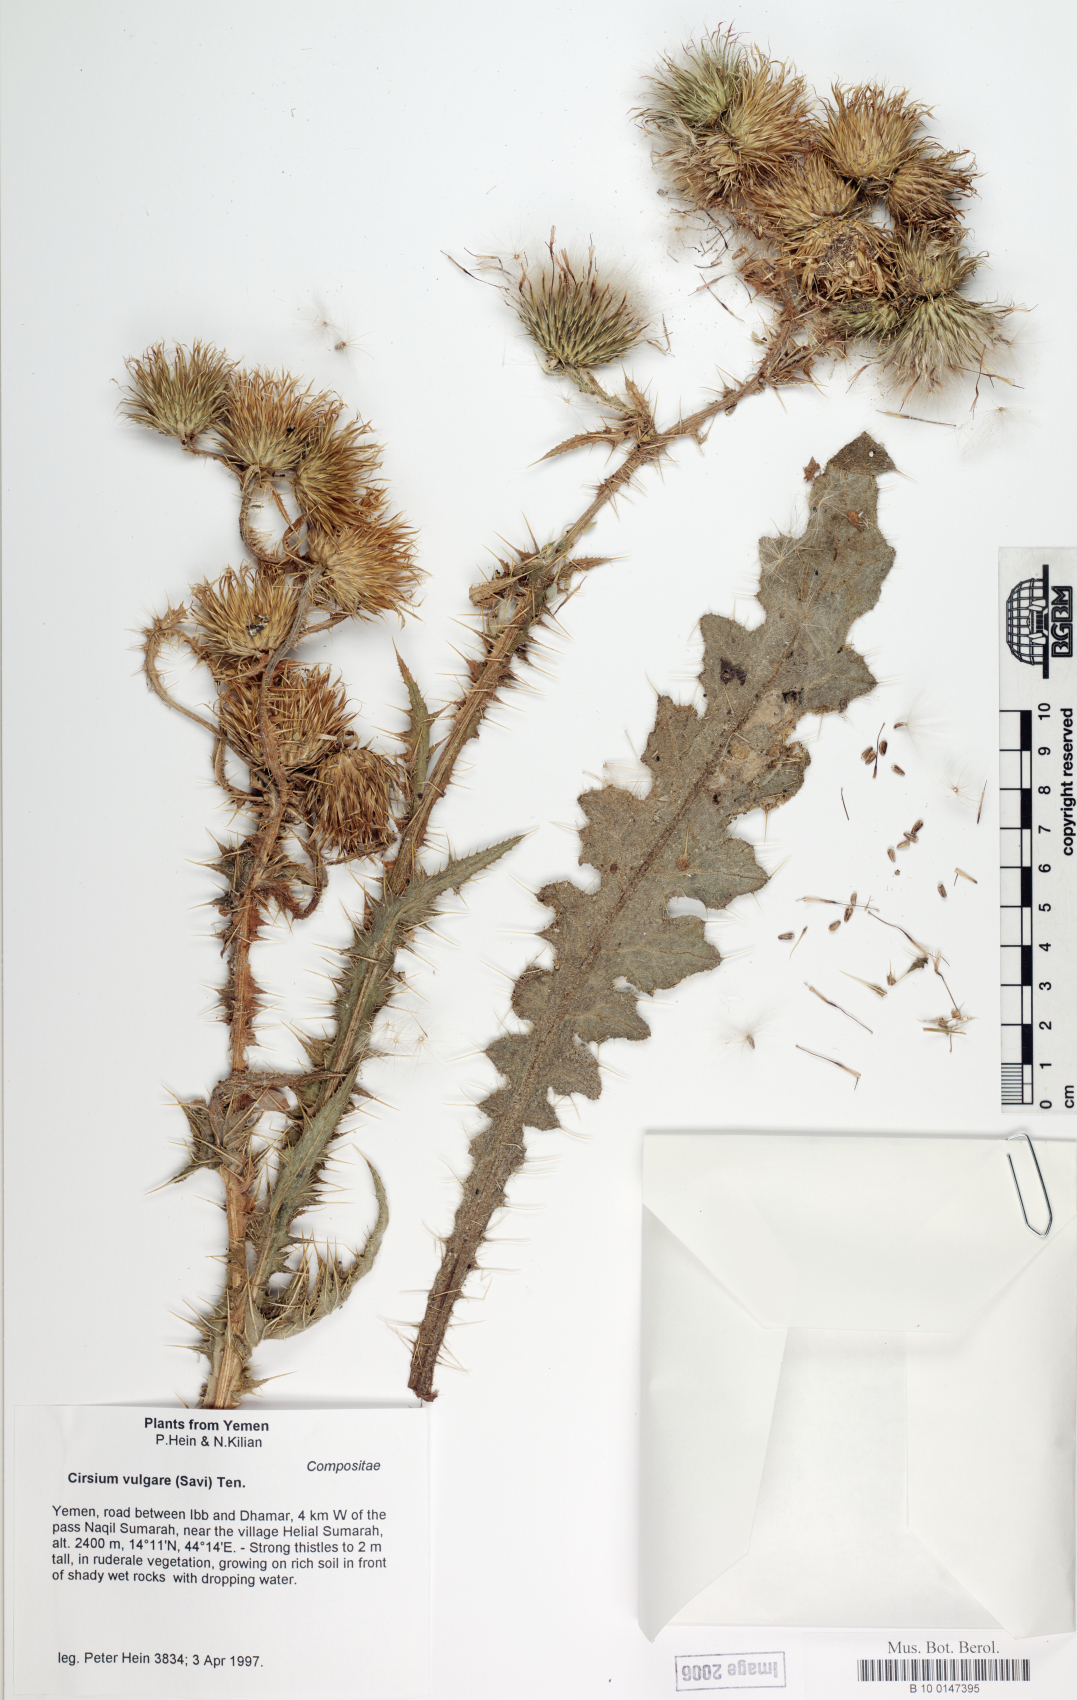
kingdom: Plantae
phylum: Tracheophyta
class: Magnoliopsida
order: Asterales
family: Asteraceae
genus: Cirsium
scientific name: Cirsium vulgare
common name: Bull thistle
